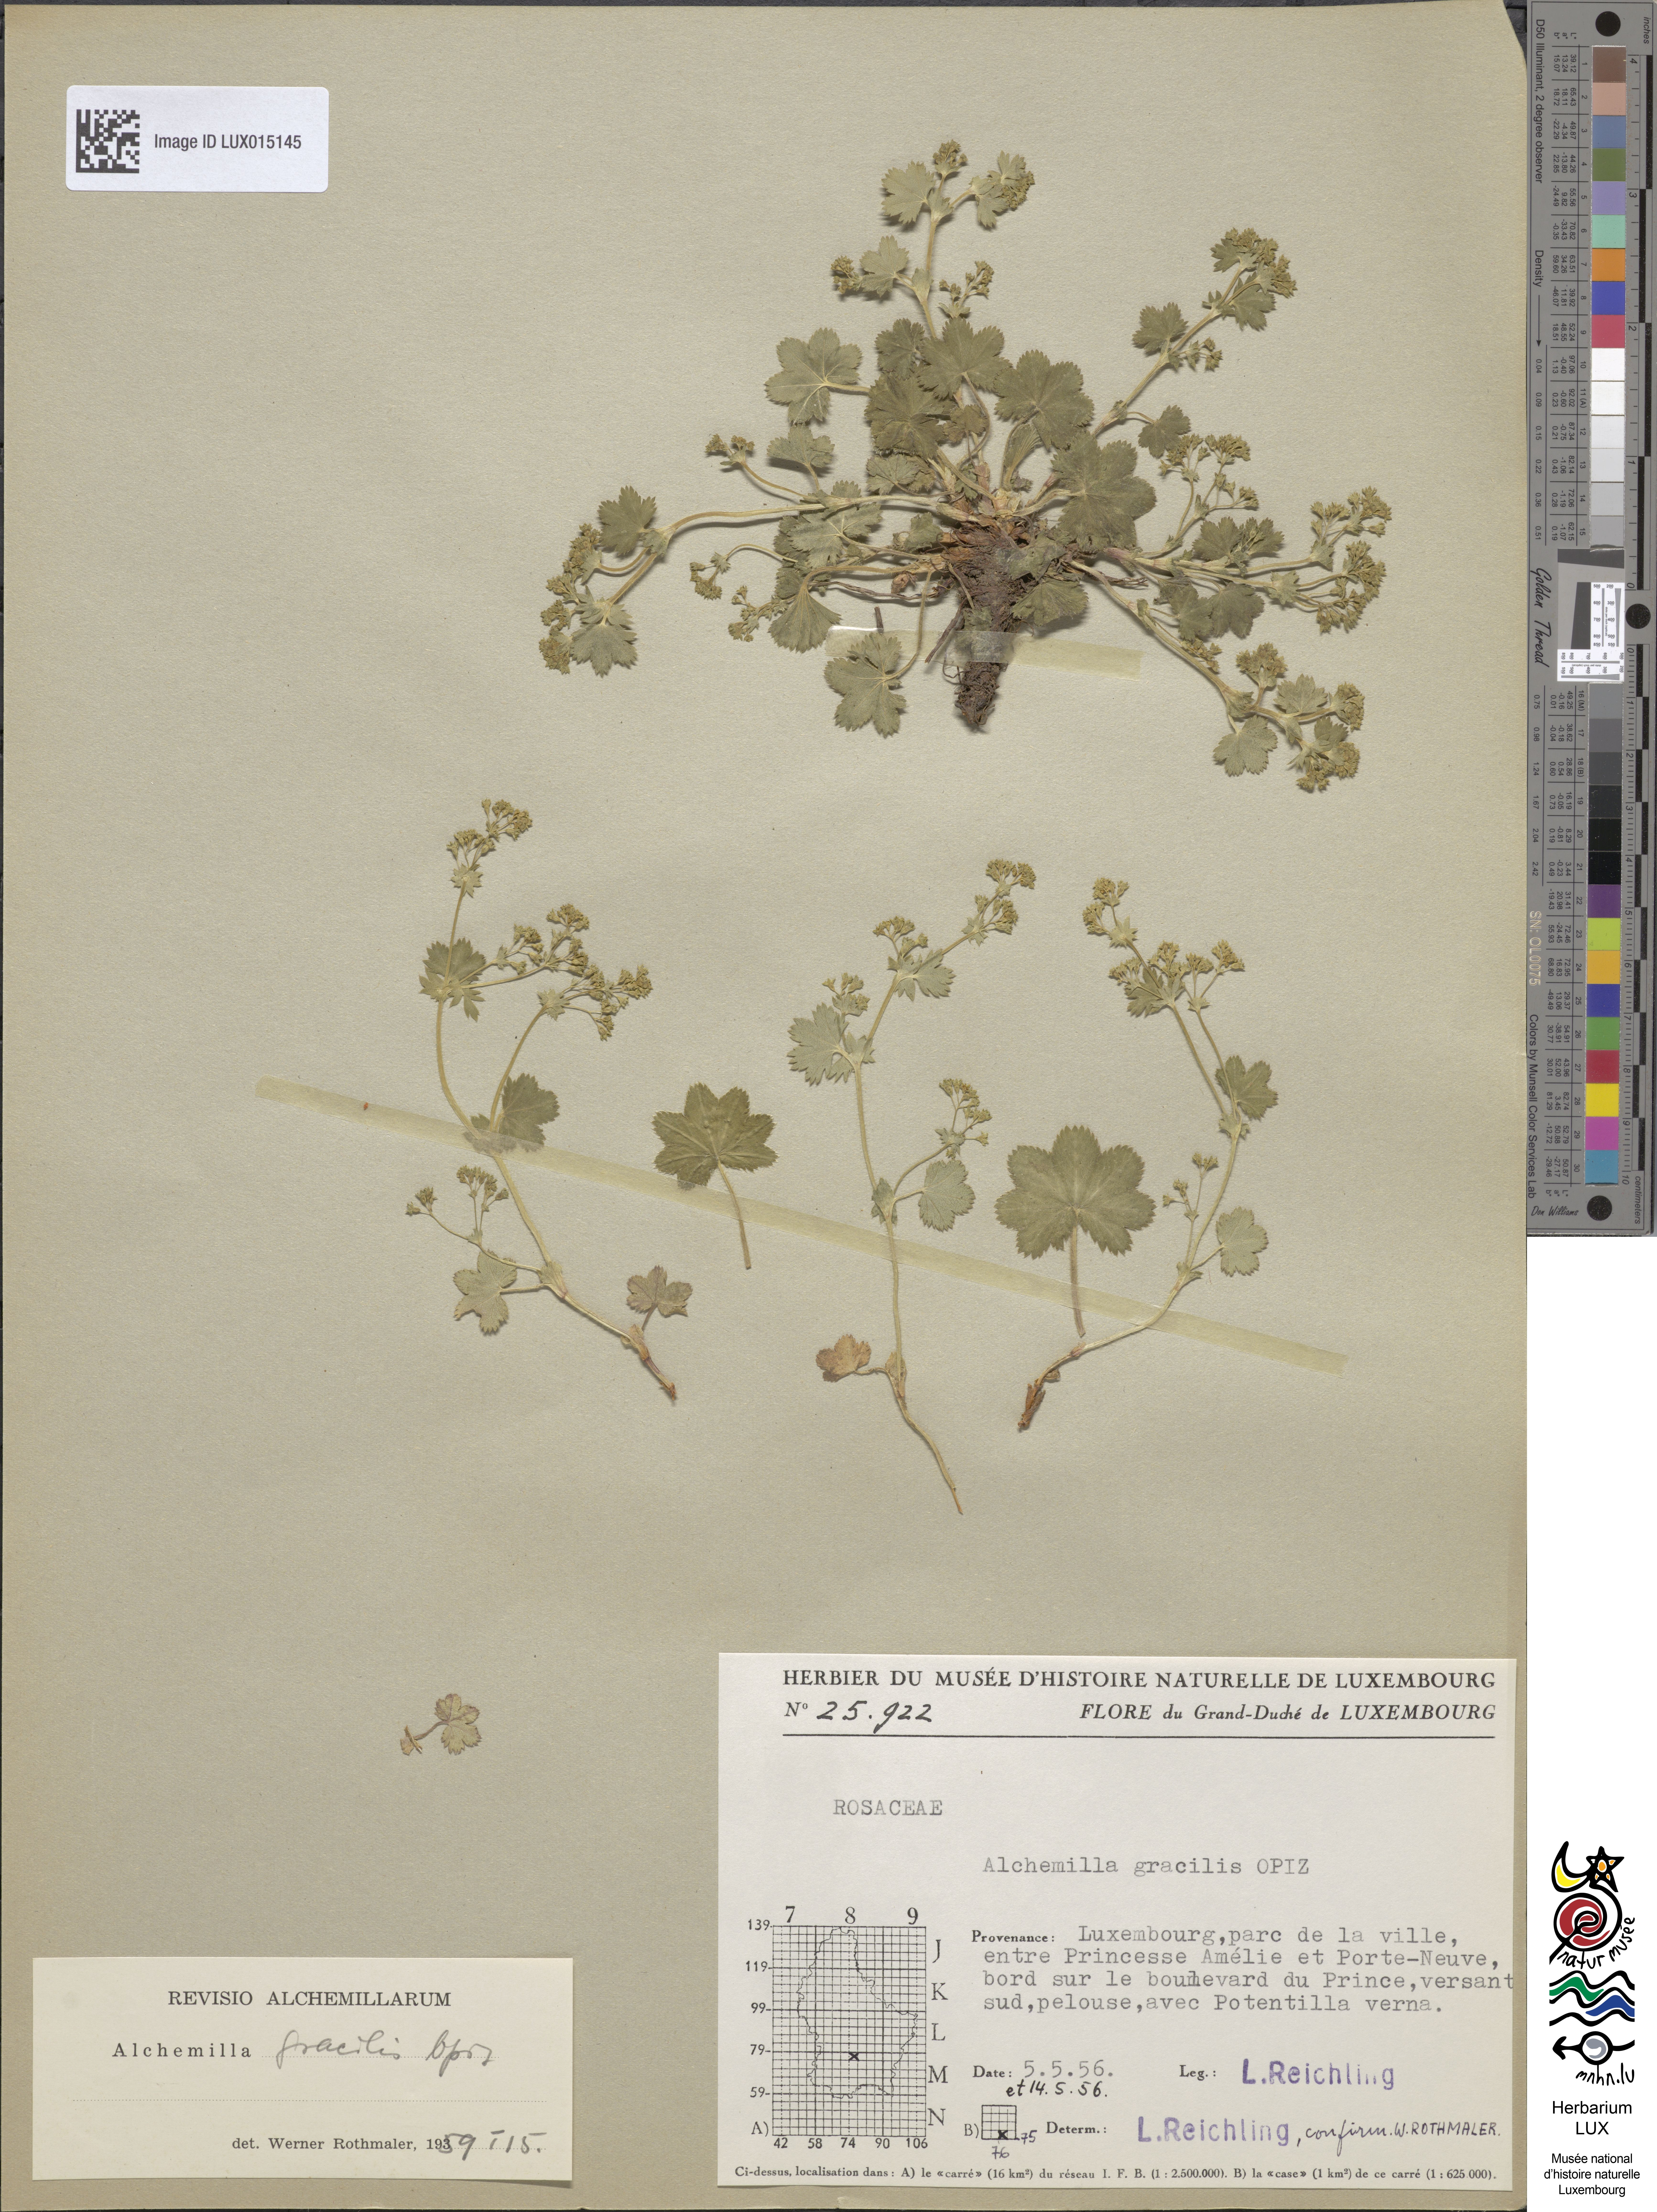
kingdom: Plantae
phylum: Tracheophyta
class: Magnoliopsida
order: Rosales
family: Rosaceae
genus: Alchemilla
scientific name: Alchemilla monticola
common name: Hairy lady's mantle
